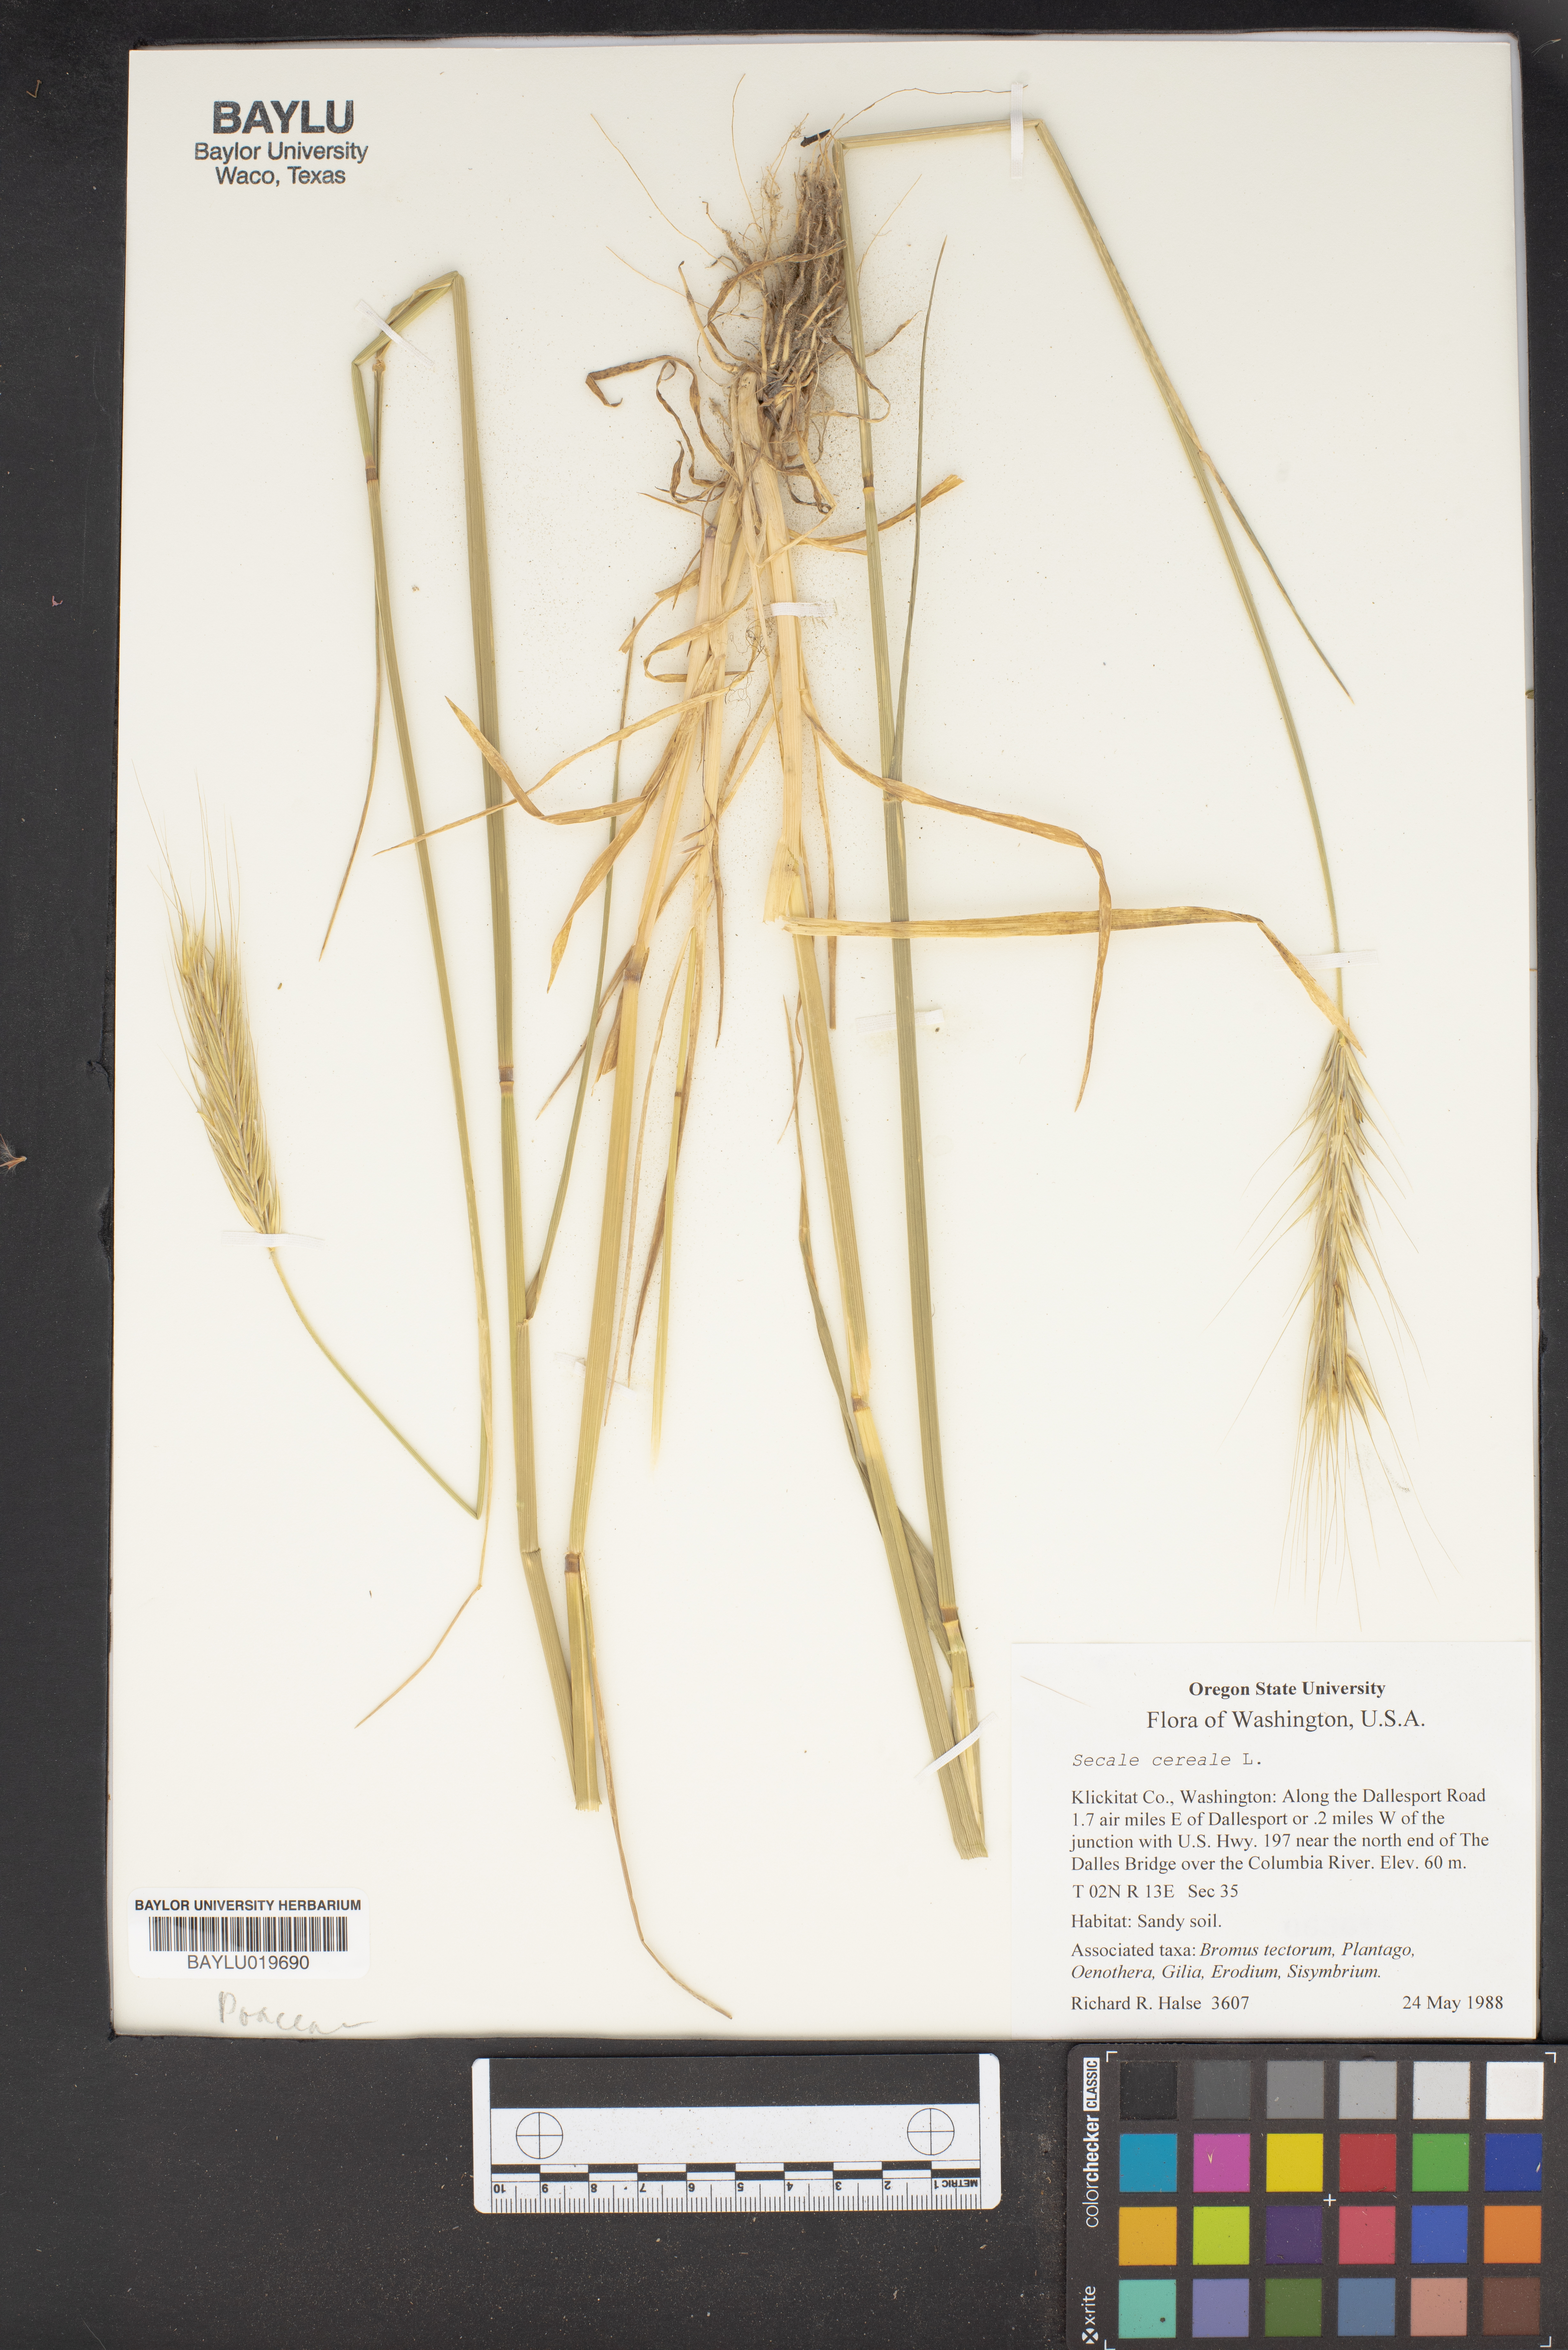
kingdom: Plantae
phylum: Tracheophyta
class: Liliopsida
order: Poales
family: Poaceae
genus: Secale
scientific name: Secale cereale
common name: Rye
